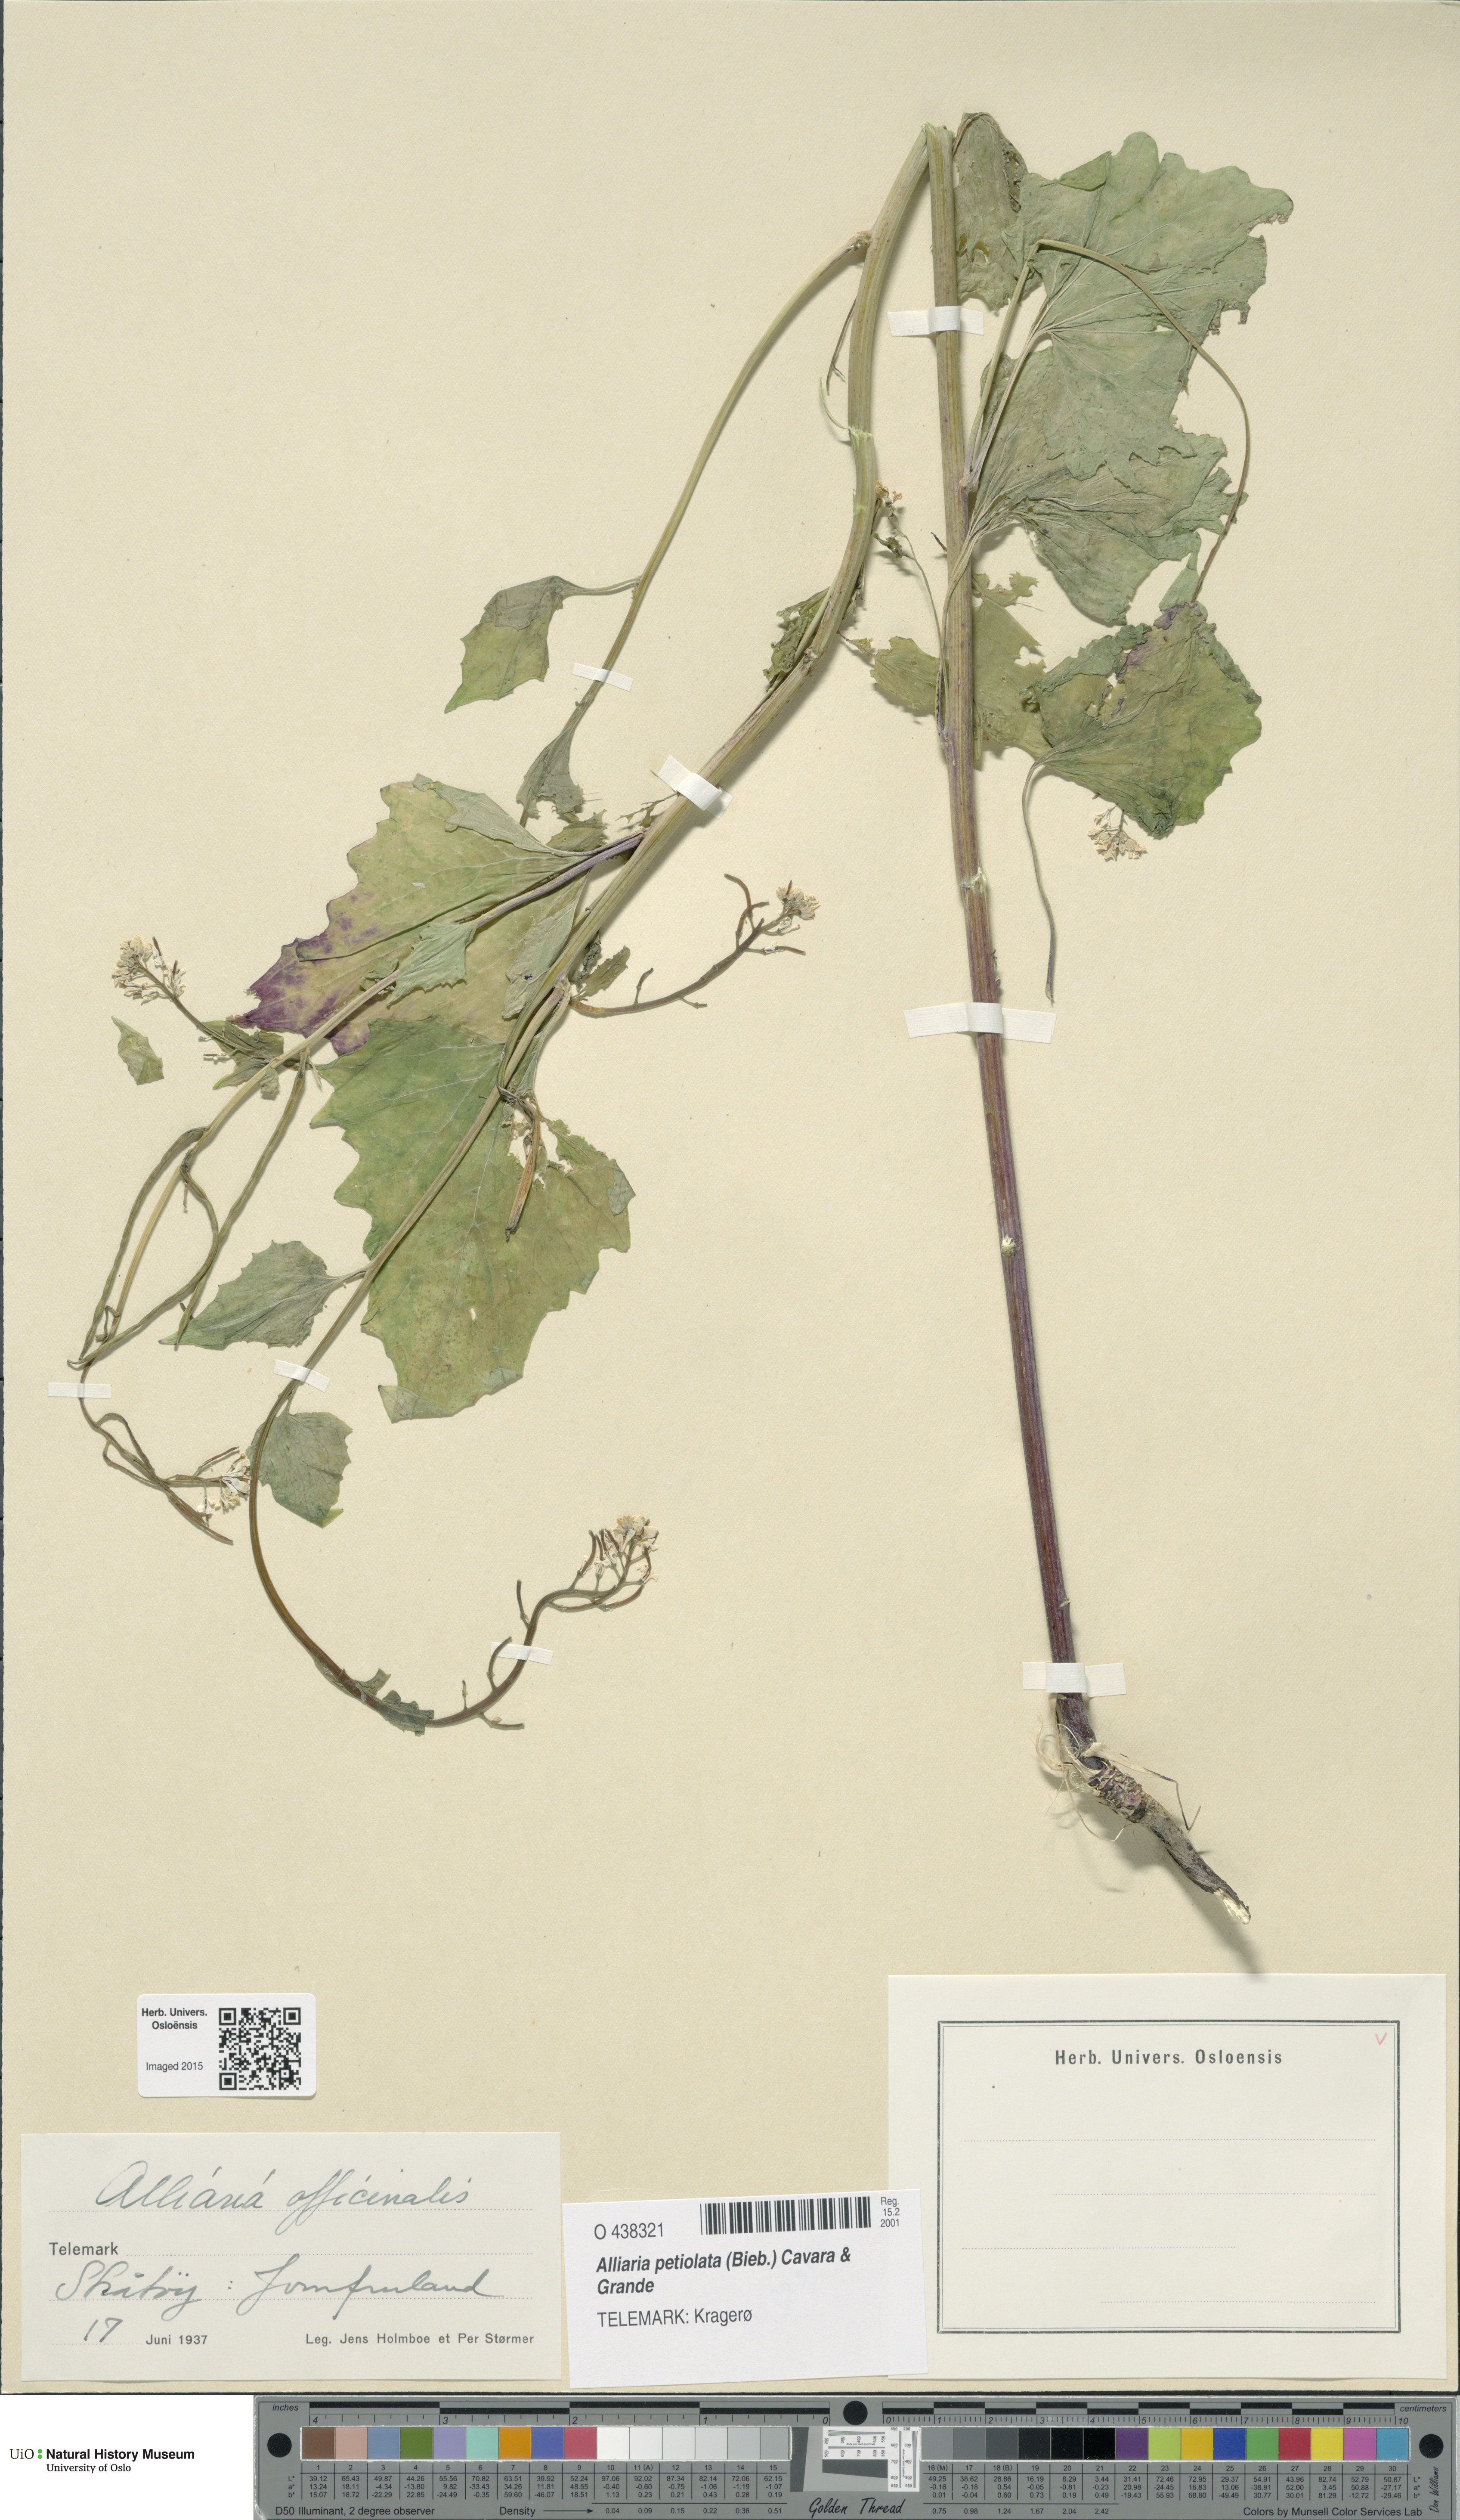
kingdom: Plantae
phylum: Tracheophyta
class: Magnoliopsida
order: Brassicales
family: Brassicaceae
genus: Alliaria
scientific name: Alliaria petiolata
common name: Garlic mustard
